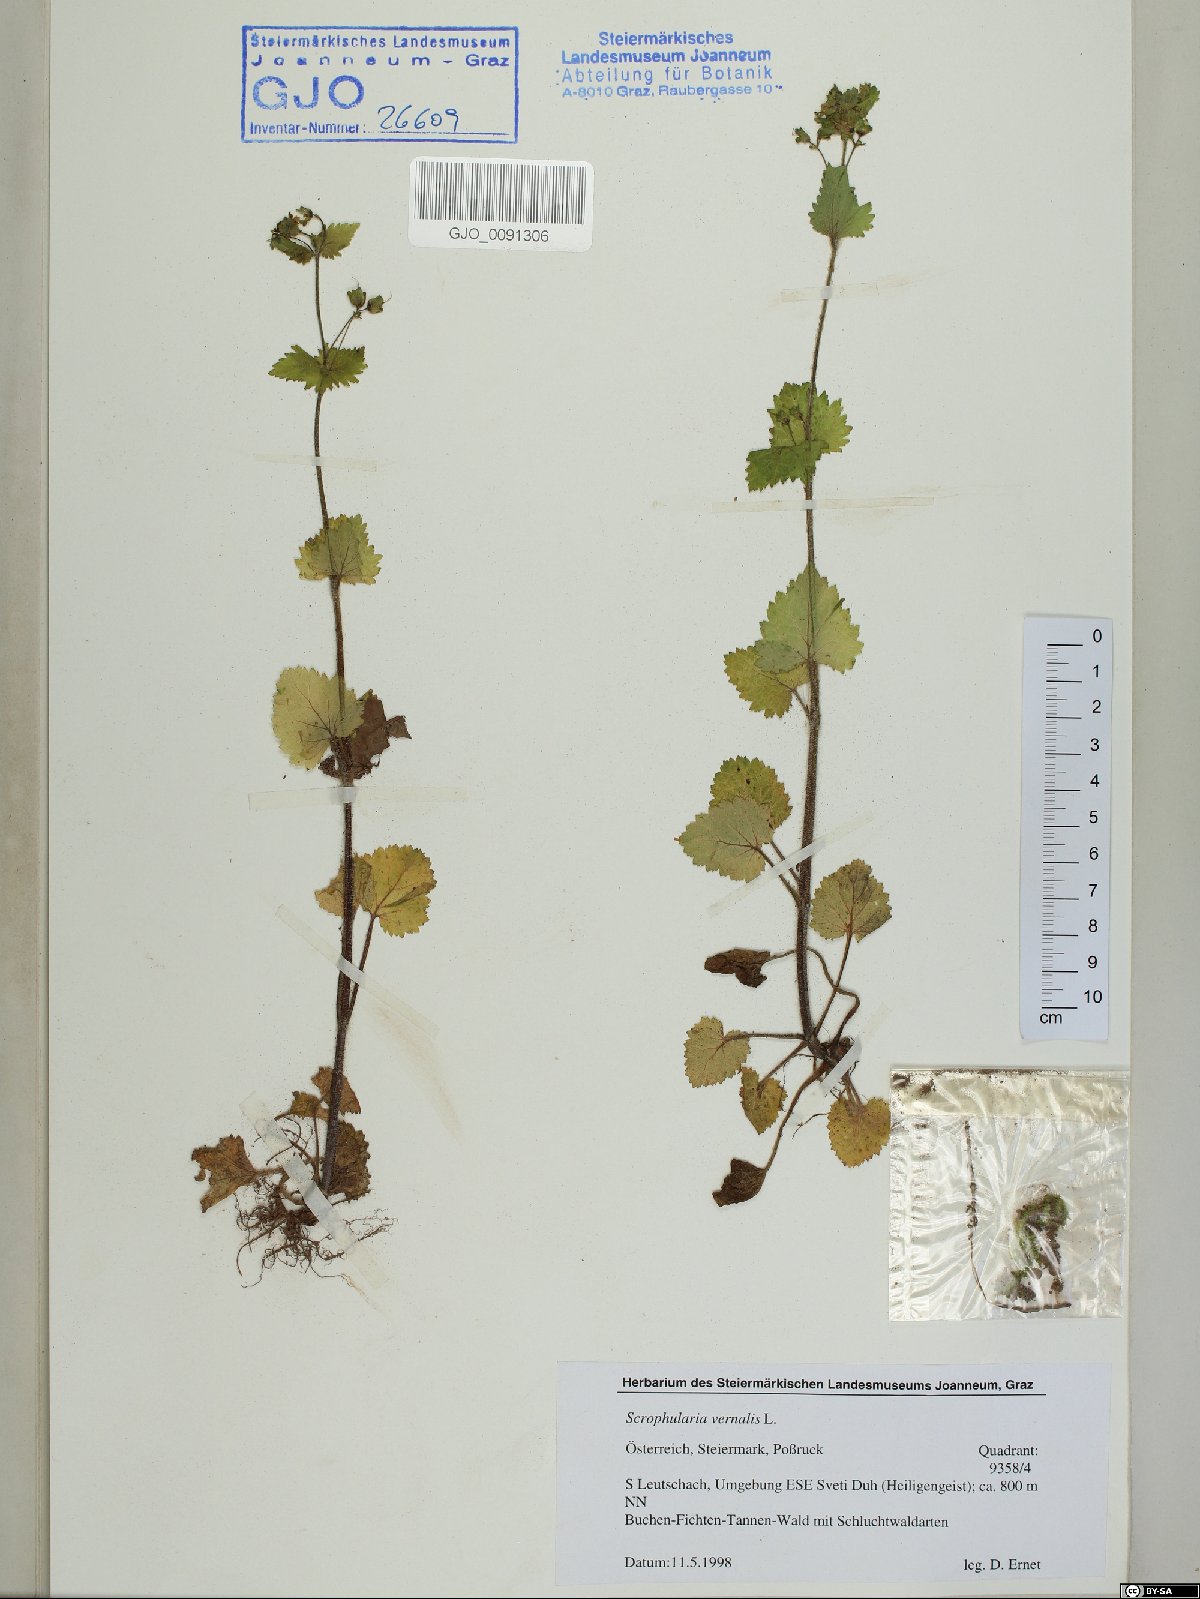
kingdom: Plantae
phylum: Tracheophyta
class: Magnoliopsida
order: Lamiales
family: Scrophulariaceae
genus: Scrophularia
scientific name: Scrophularia vernalis
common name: Yellow figwort
